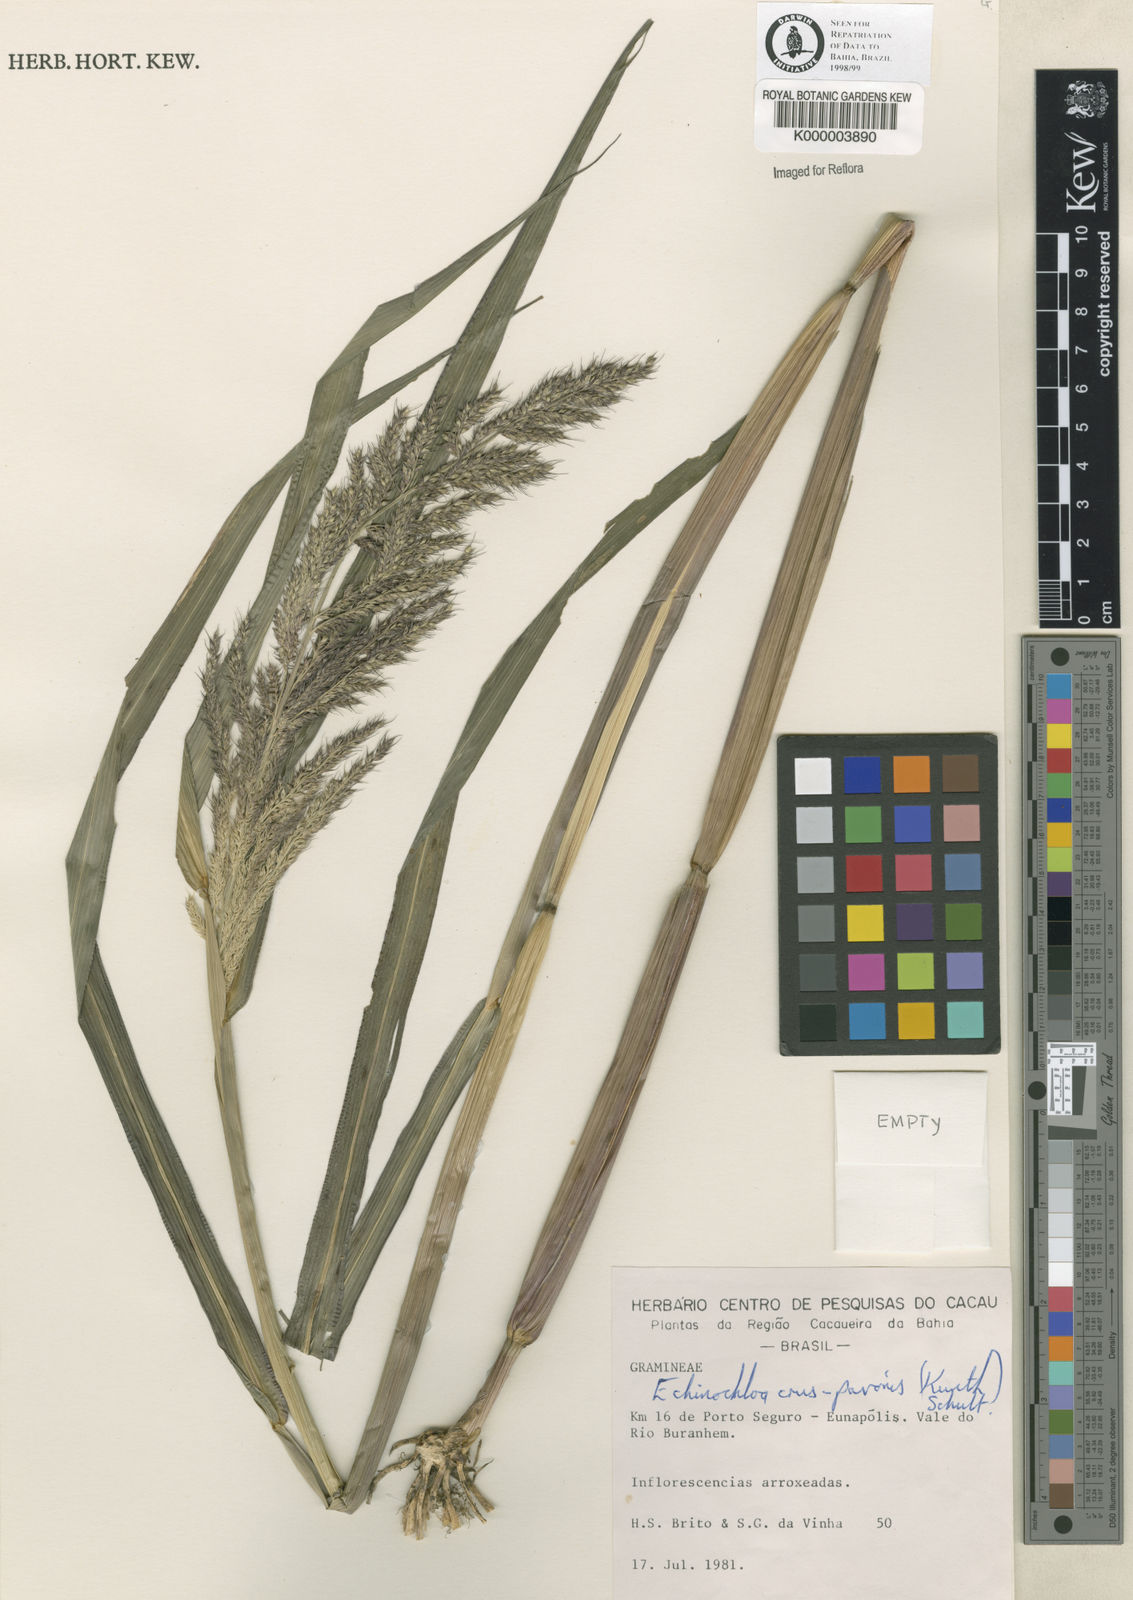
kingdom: Plantae
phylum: Tracheophyta
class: Liliopsida
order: Poales
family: Poaceae
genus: Echinochloa
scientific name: Echinochloa crus-pavonis
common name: Gulf cockspur grass
